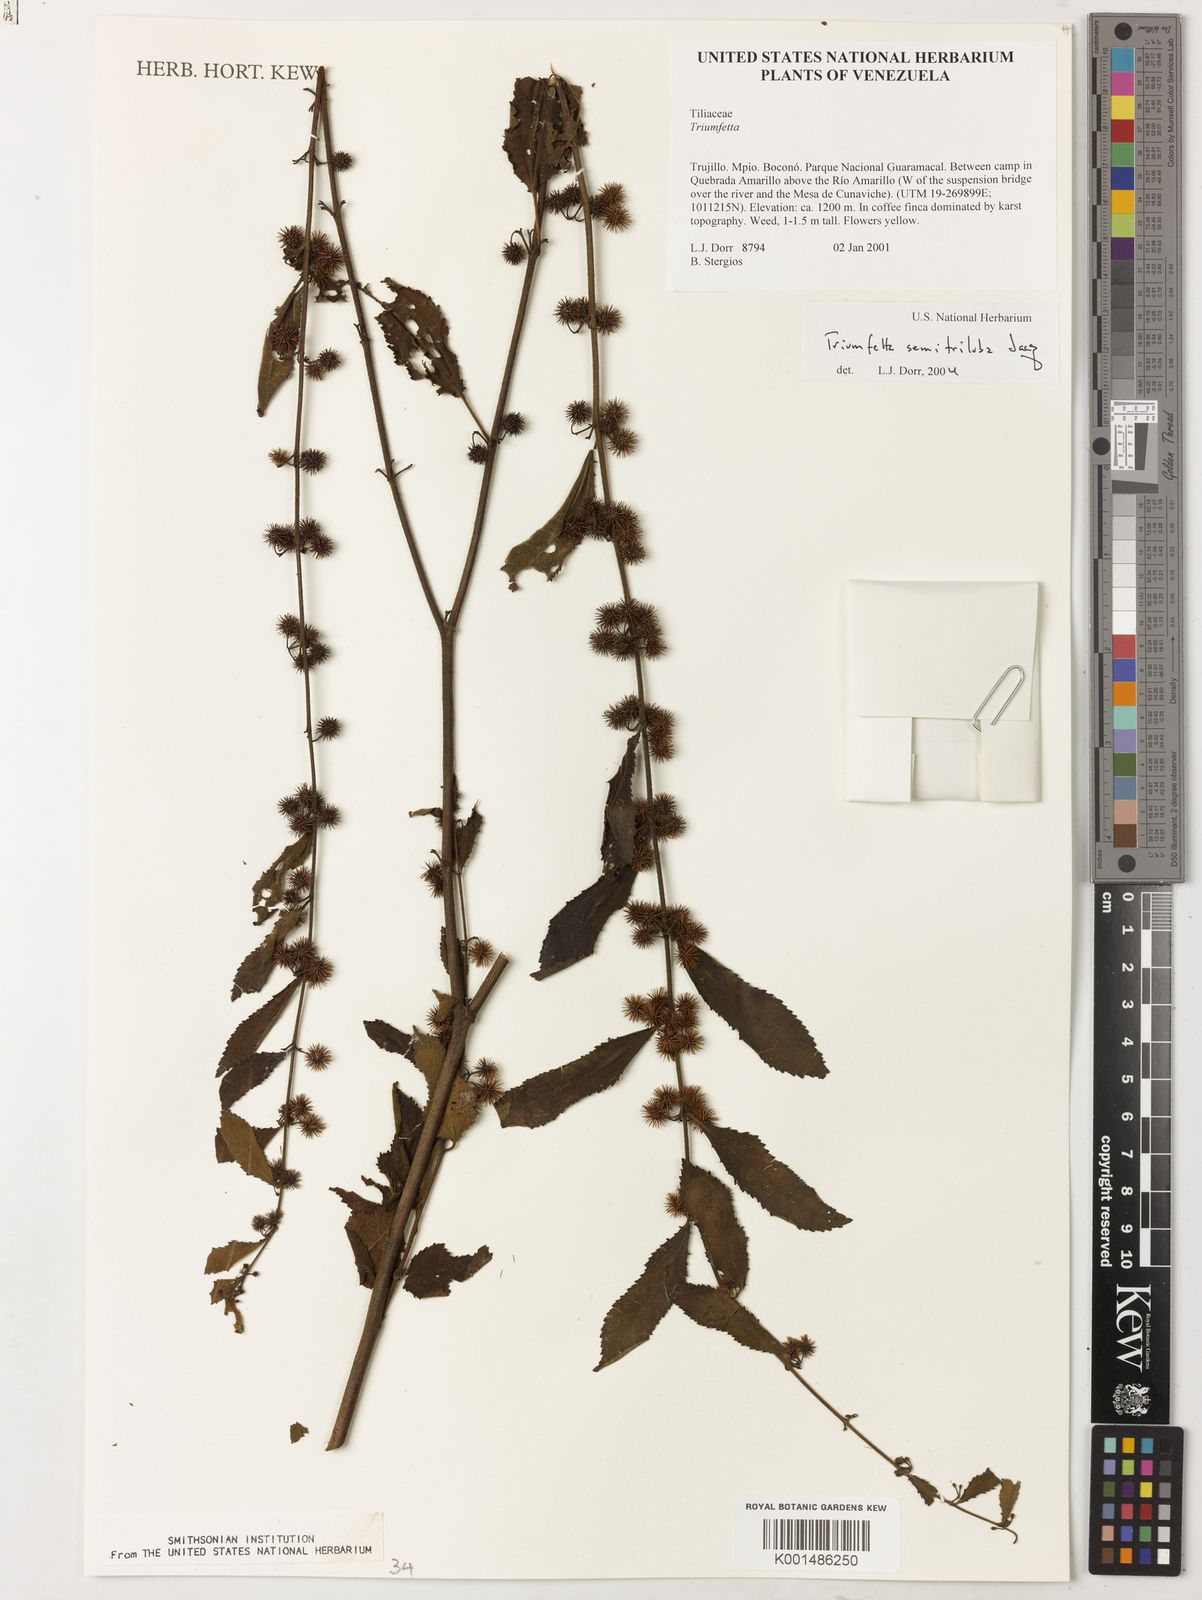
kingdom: Plantae
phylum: Tracheophyta
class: Magnoliopsida
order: Malvales
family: Malvaceae
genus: Triumfetta
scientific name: Triumfetta semitriloba
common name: Sacramento burbark
